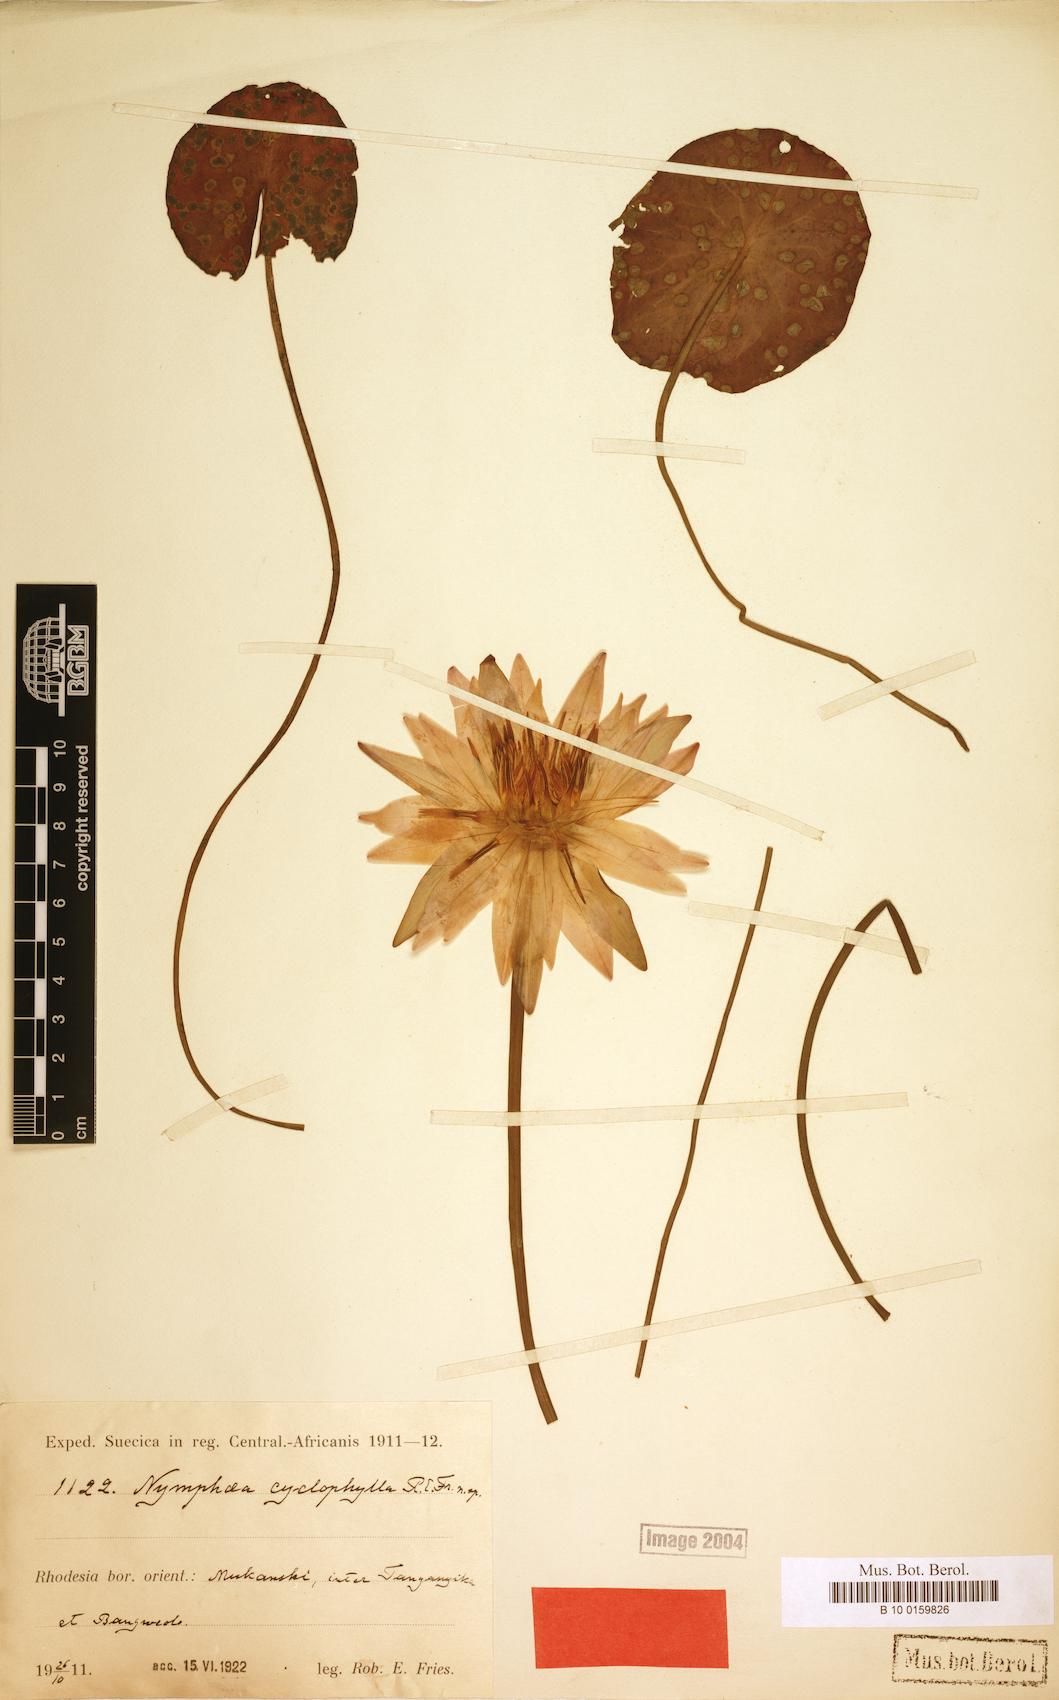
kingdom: Plantae
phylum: Tracheophyta
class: Magnoliopsida
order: Nymphaeales
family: Nymphaeaceae
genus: Nymphaea
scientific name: Nymphaea nouchali
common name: Blue lotus
